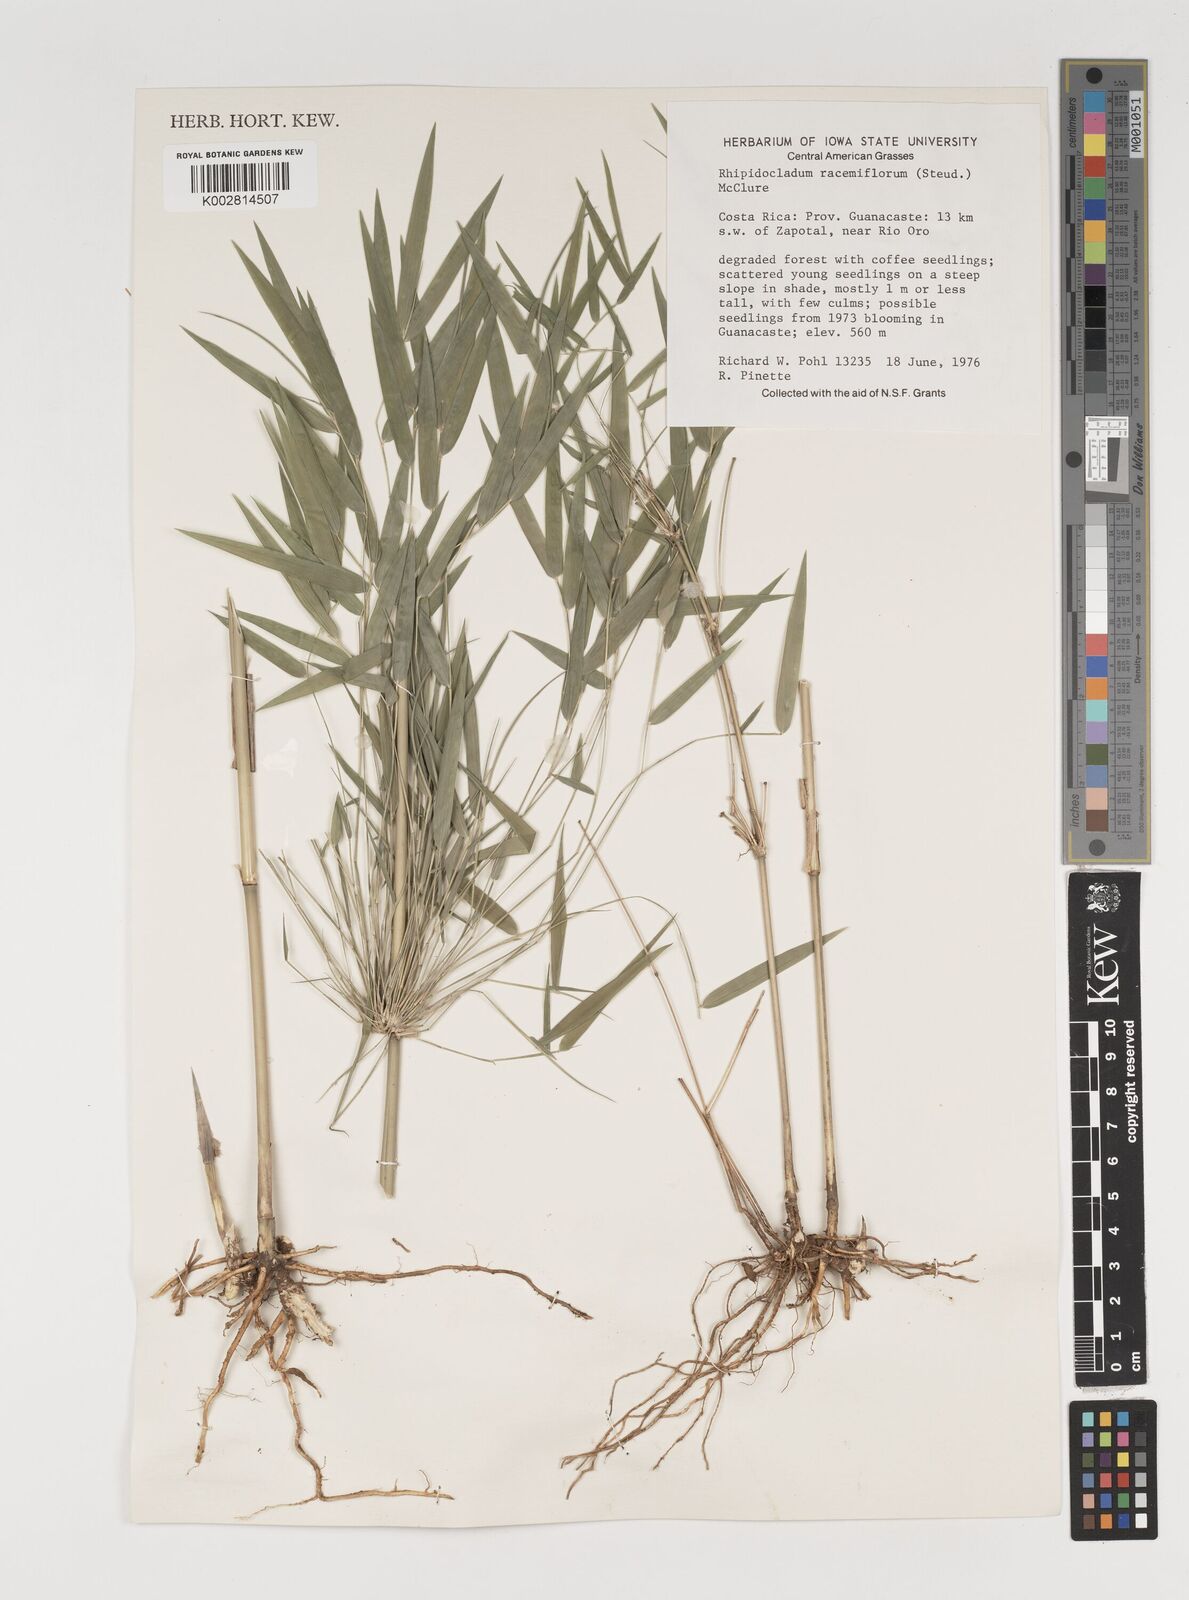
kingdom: Plantae
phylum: Tracheophyta
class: Liliopsida
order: Poales
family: Poaceae
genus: Rhipidocladum
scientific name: Rhipidocladum racemiflorum
